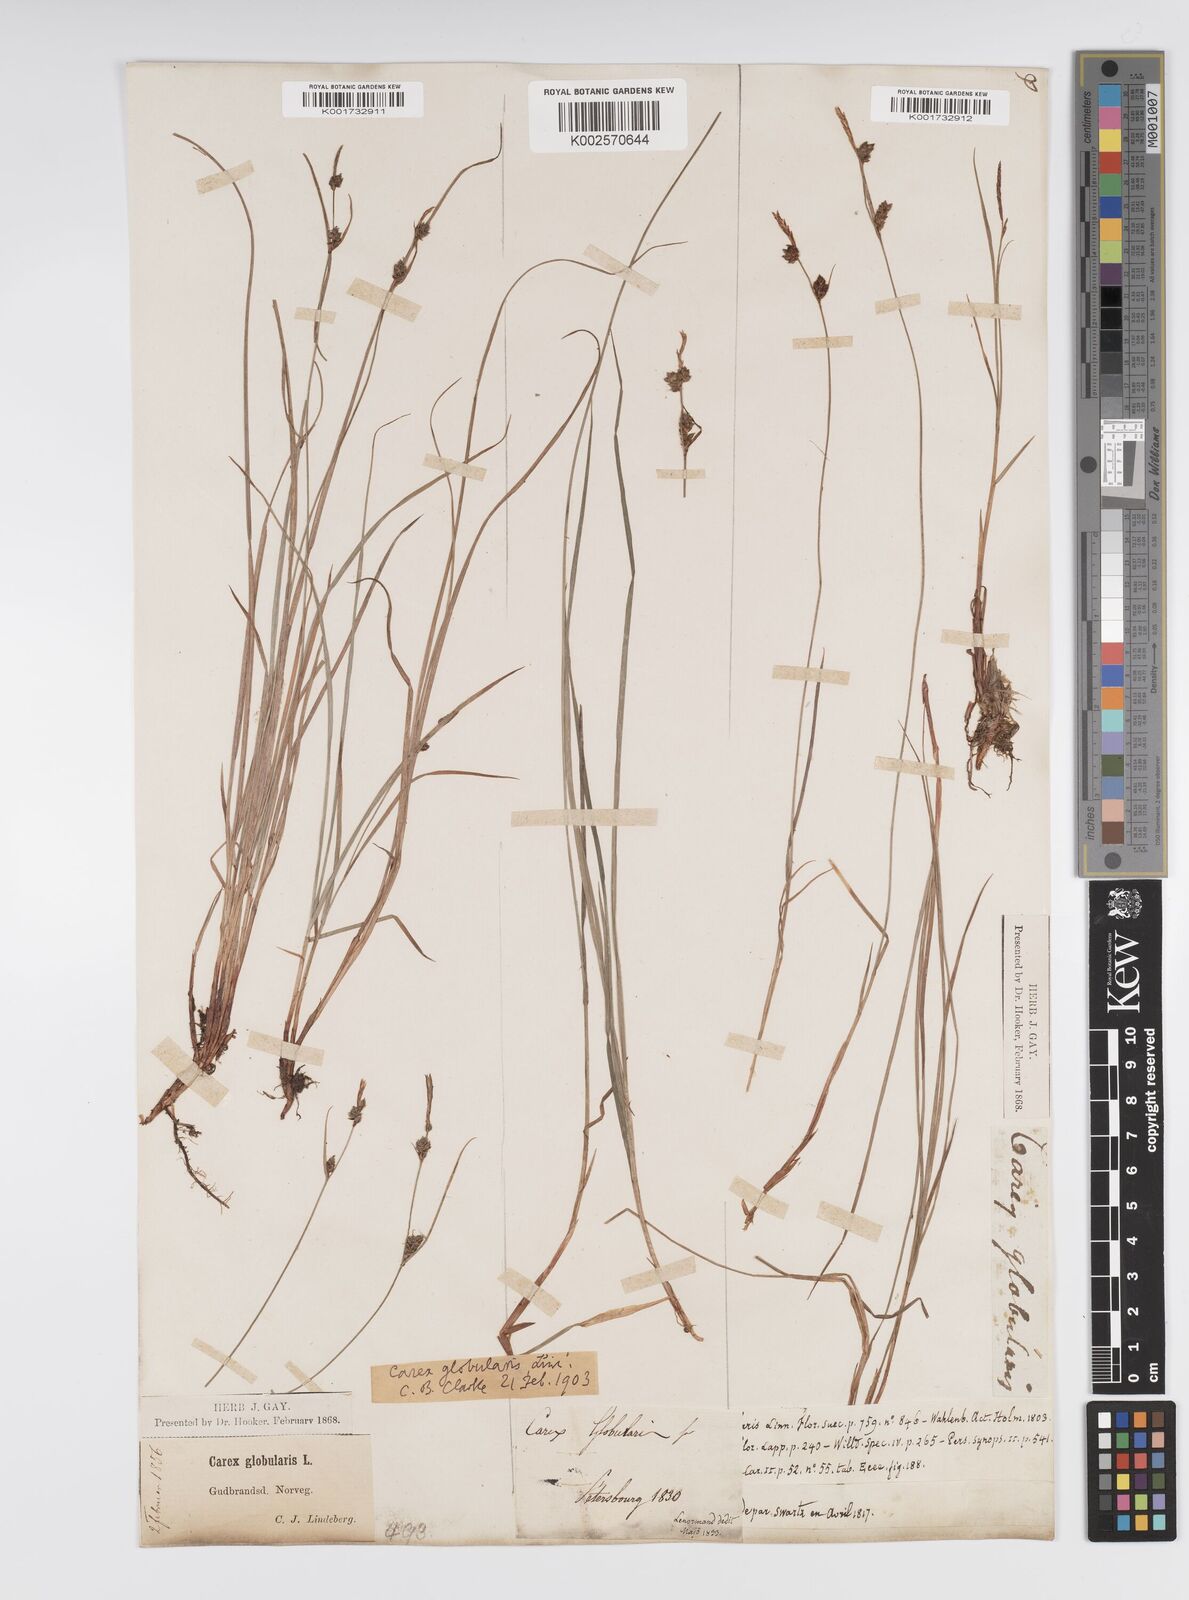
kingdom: Plantae
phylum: Tracheophyta
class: Liliopsida
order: Poales
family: Cyperaceae
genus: Carex
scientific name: Carex globularis
